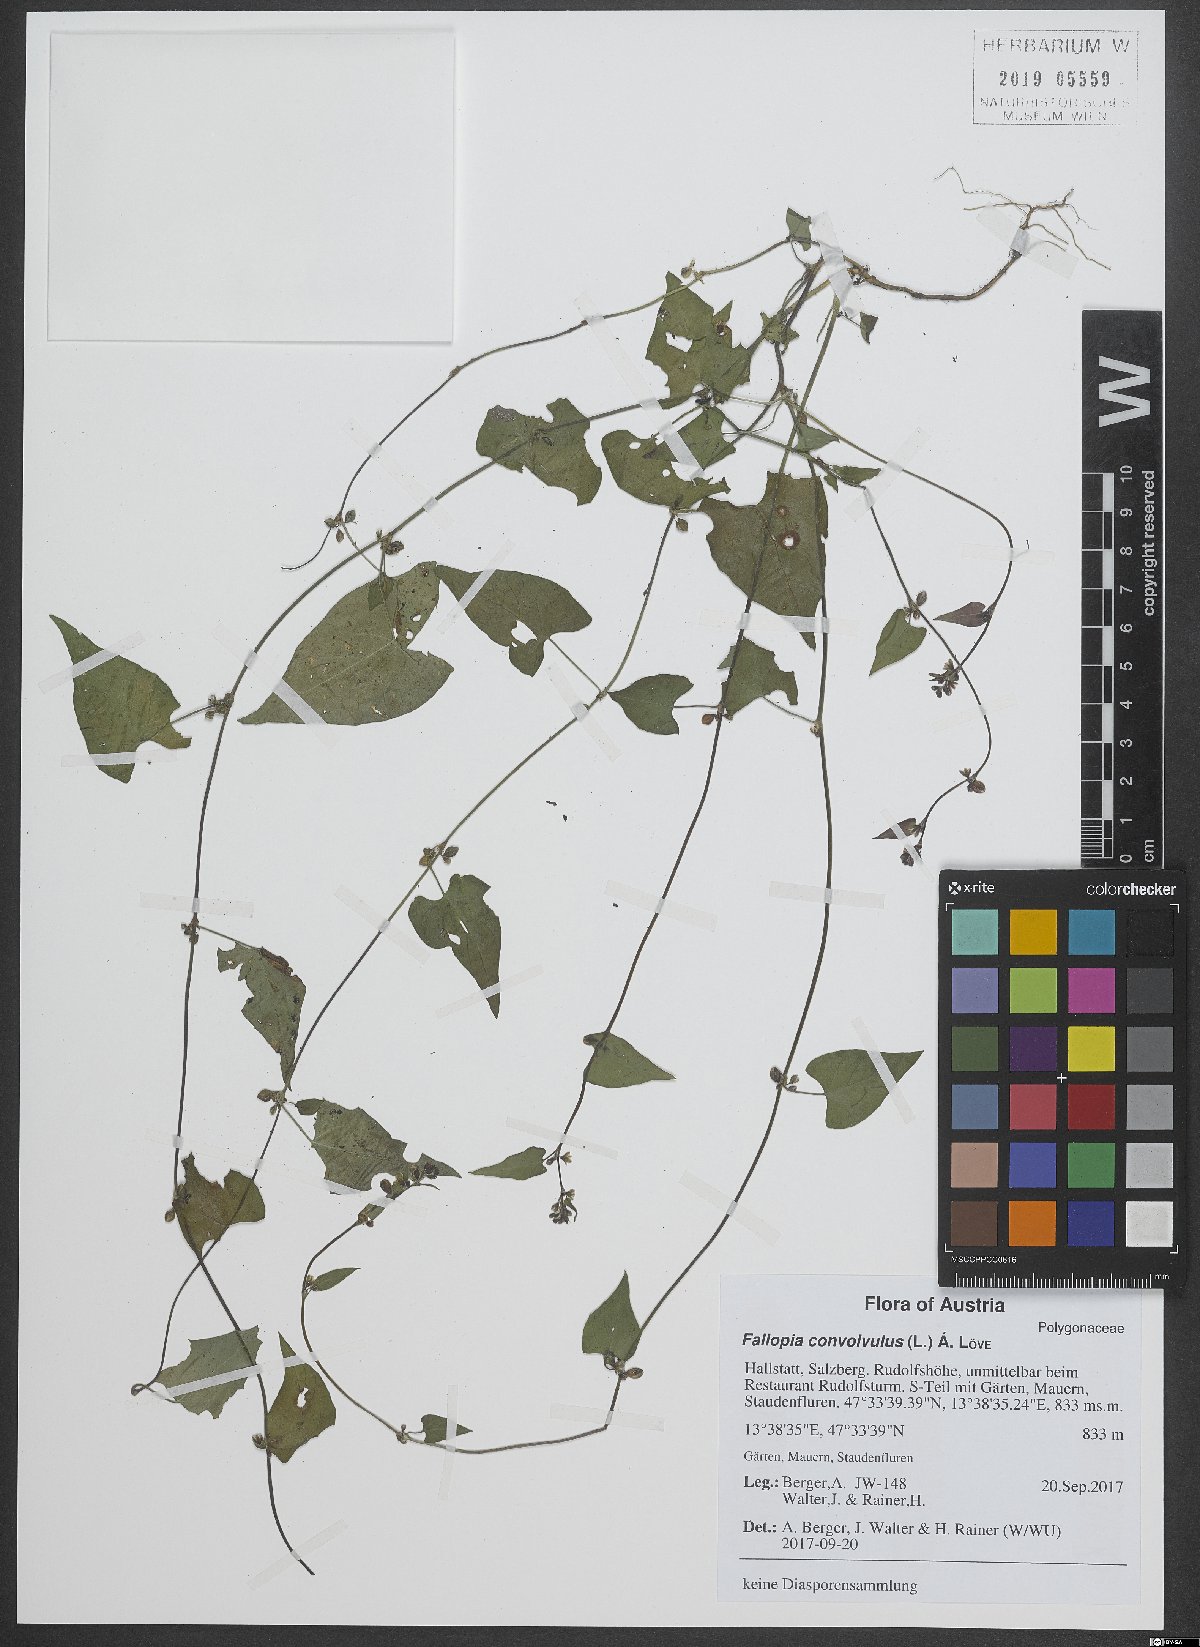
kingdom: Plantae
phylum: Tracheophyta
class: Magnoliopsida
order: Caryophyllales
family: Polygonaceae
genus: Fallopia
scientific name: Fallopia convolvulus
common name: Black bindweed
